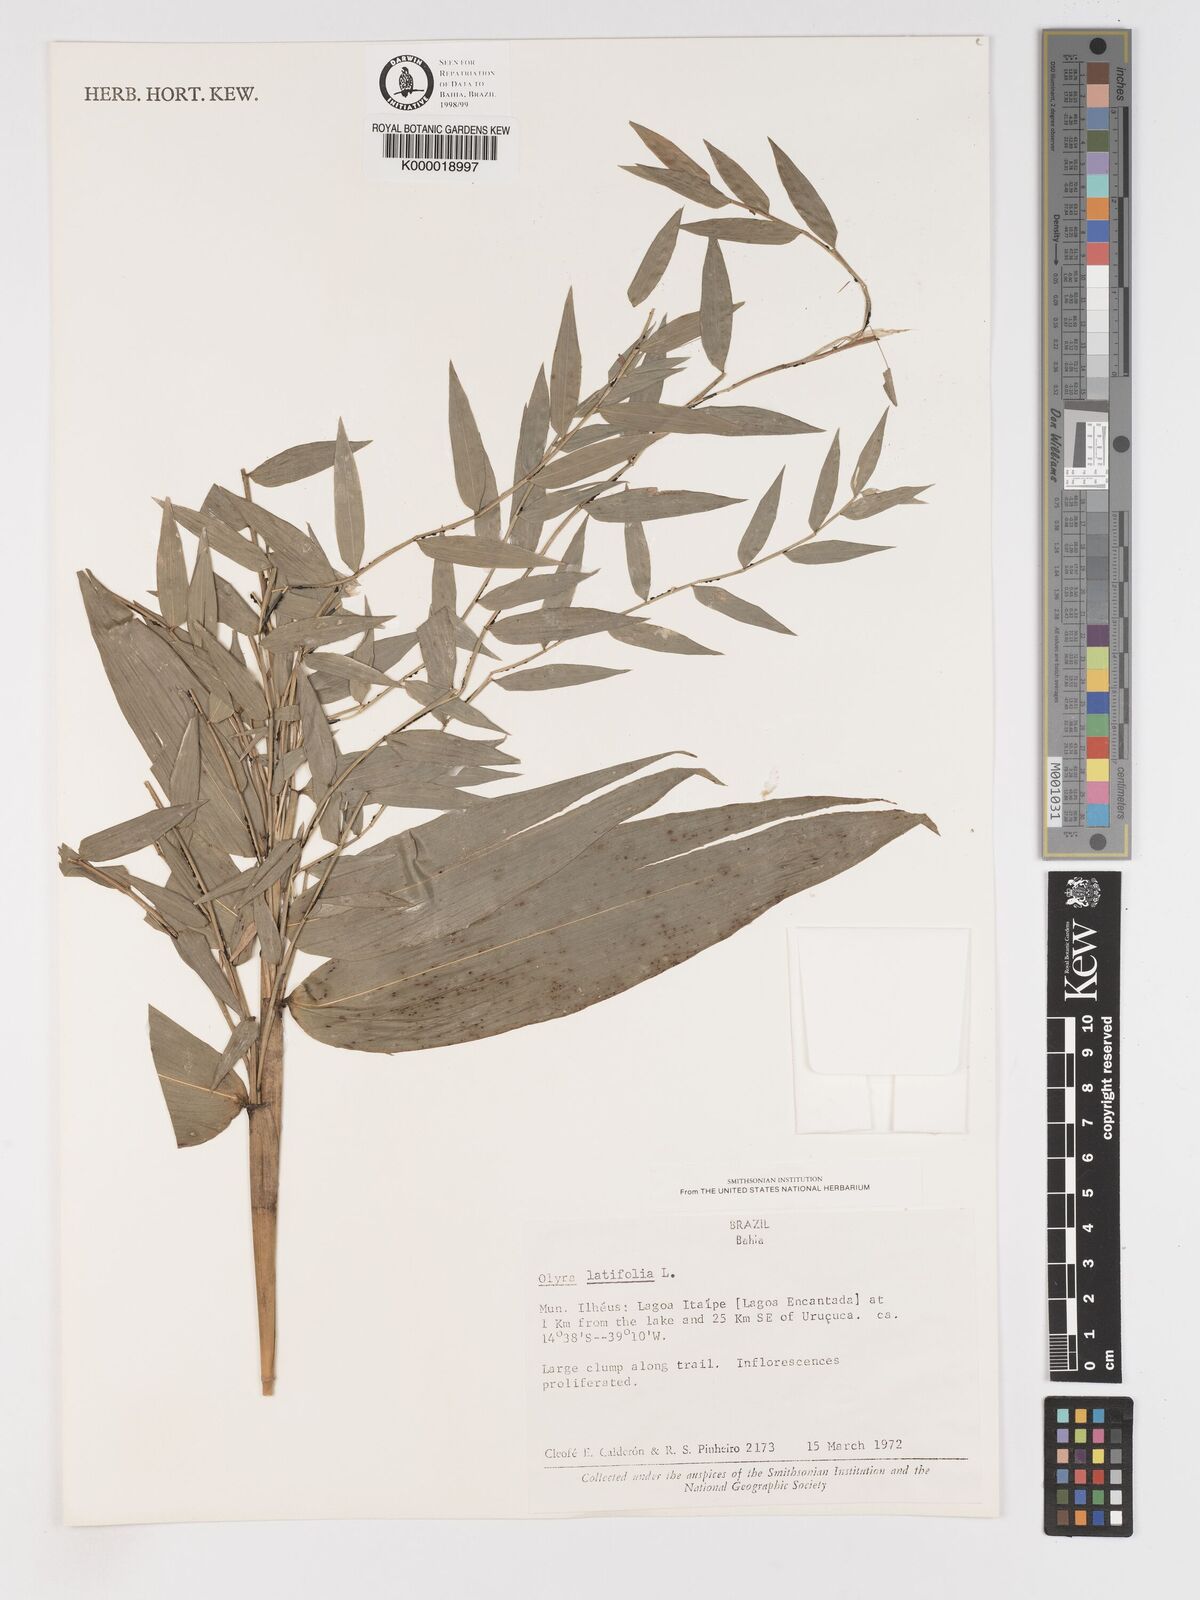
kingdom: Plantae
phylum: Tracheophyta
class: Liliopsida
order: Poales
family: Poaceae
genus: Olyra
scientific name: Olyra latifolia
